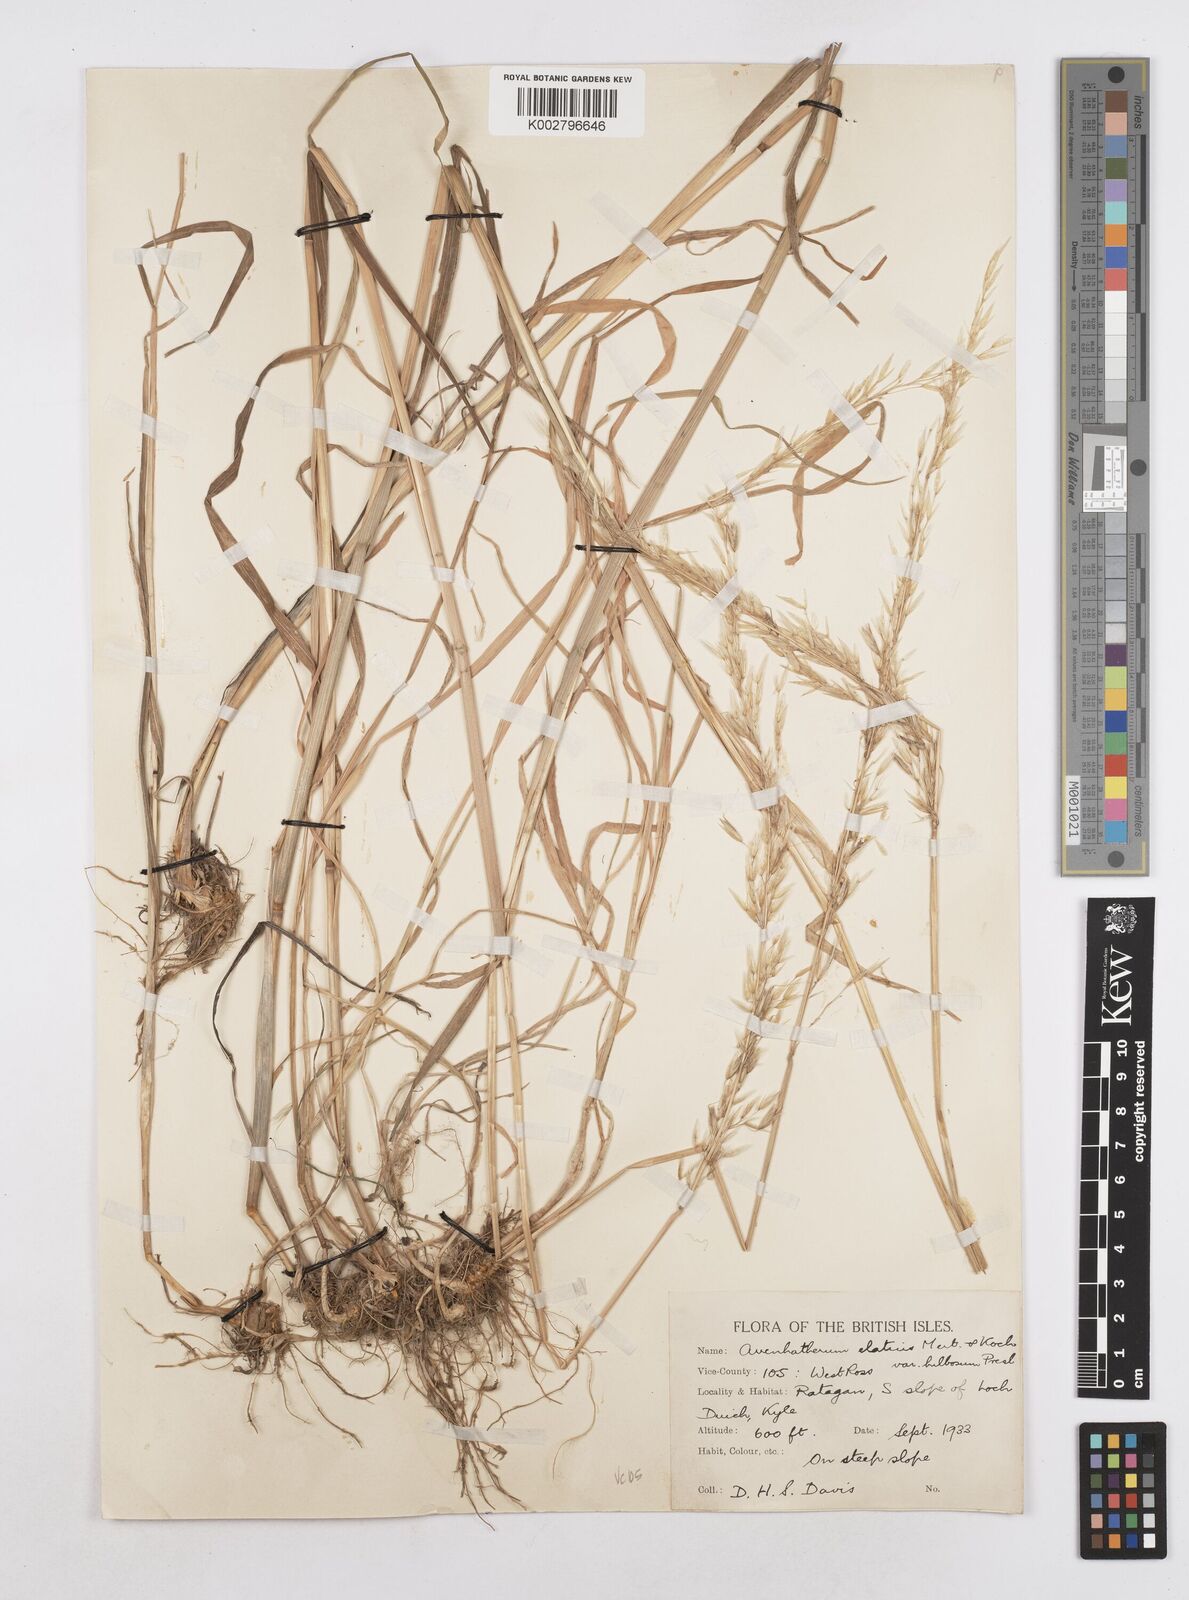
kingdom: Plantae
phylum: Tracheophyta
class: Liliopsida
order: Poales
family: Poaceae
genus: Arrhenatherum
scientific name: Arrhenatherum elatius
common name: Tall oatgrass
